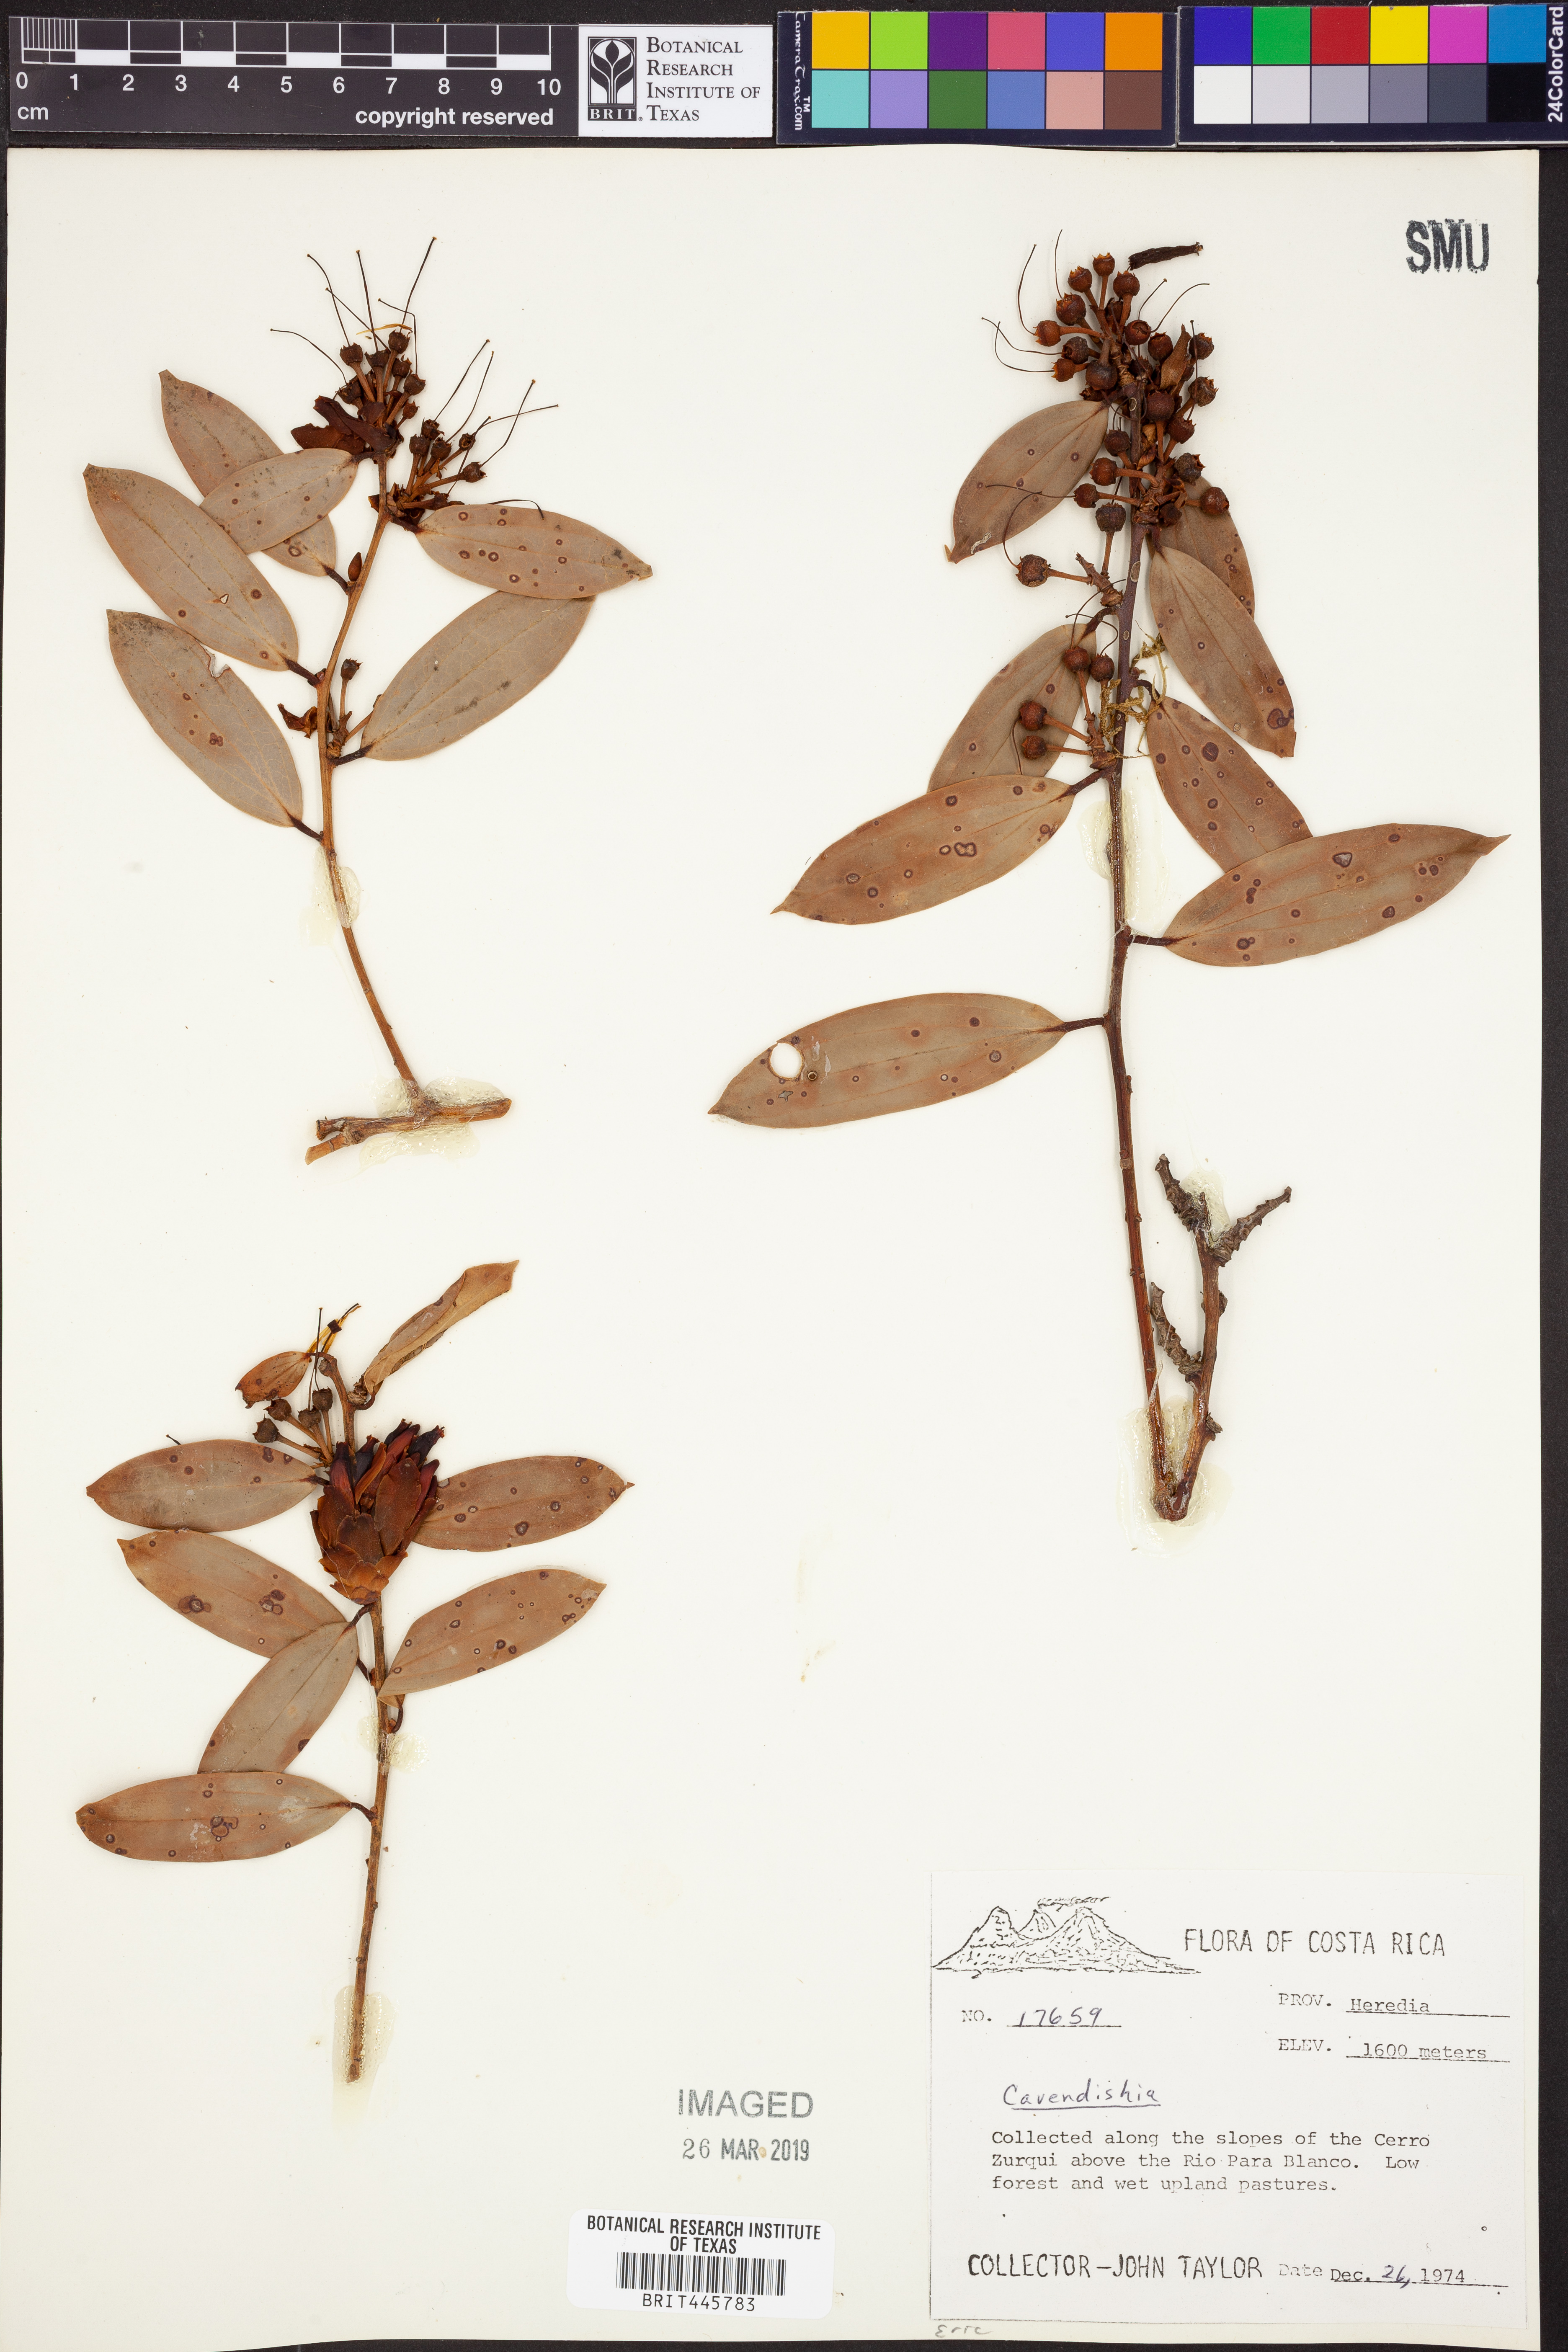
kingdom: Plantae
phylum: Tracheophyta
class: Magnoliopsida
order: Ericales
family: Ericaceae
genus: Cavendishia
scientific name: Cavendishia
